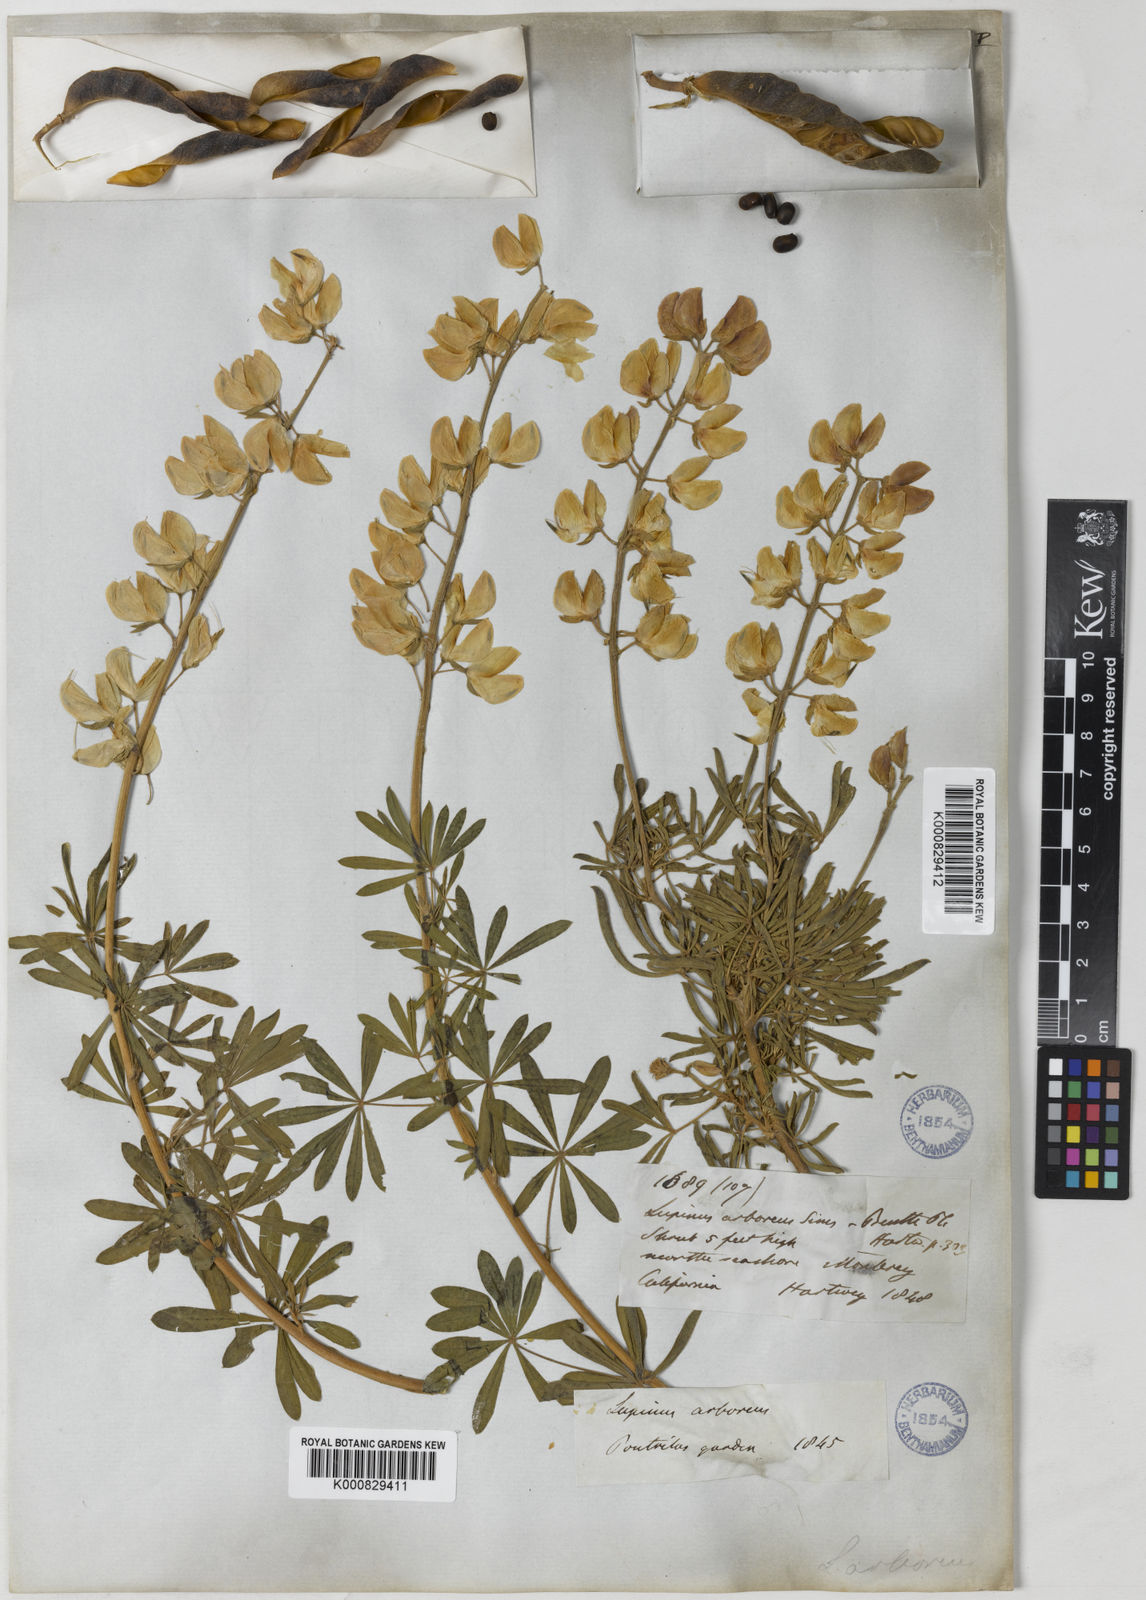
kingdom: Plantae
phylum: Tracheophyta
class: Magnoliopsida
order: Fabales
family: Fabaceae
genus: Lupinus
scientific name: Lupinus arboreus
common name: Yellow bush lupine
